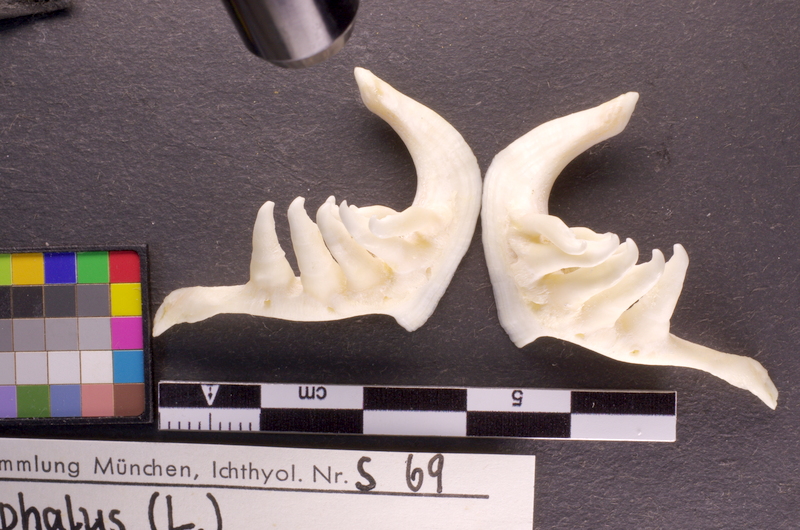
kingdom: Animalia
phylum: Chordata
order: Cypriniformes
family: Cyprinidae
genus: Squalius
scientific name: Squalius cephalus
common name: Chub
